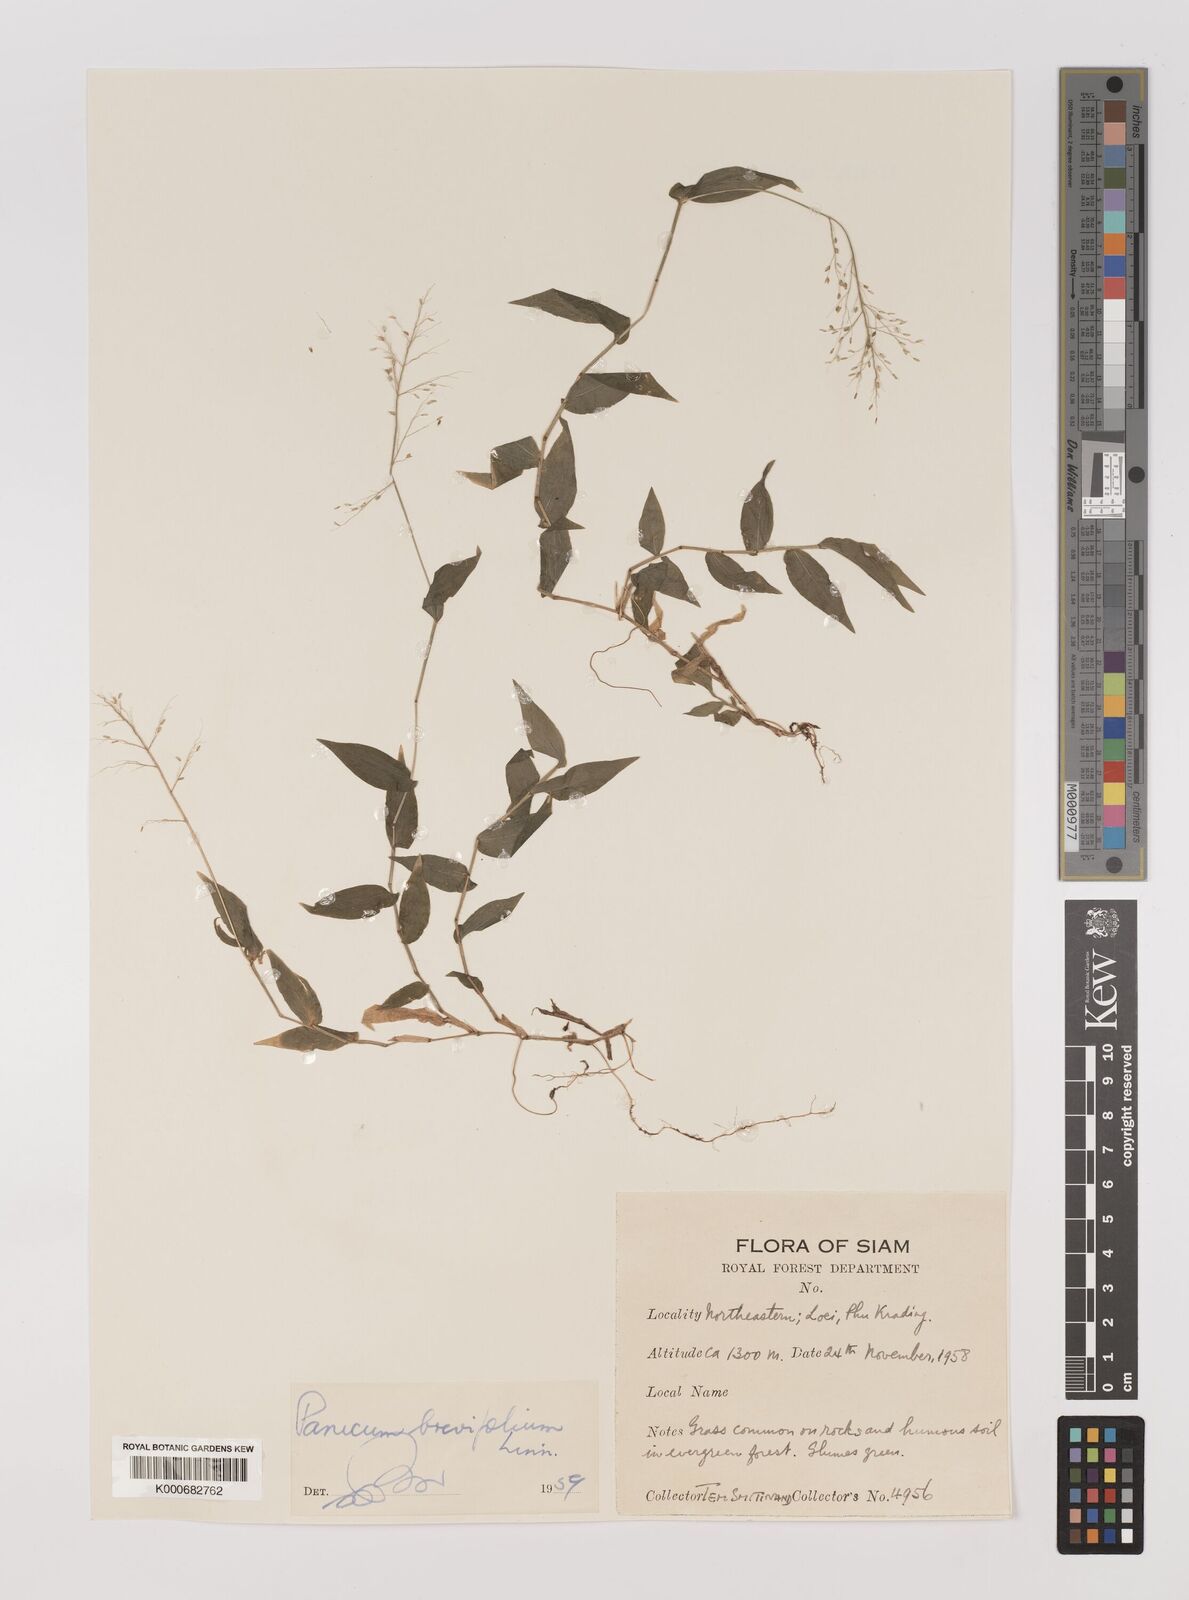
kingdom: Plantae
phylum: Tracheophyta
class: Liliopsida
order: Poales
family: Poaceae
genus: Panicum
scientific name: Panicum brevifolium
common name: Shortleaf panic grass
